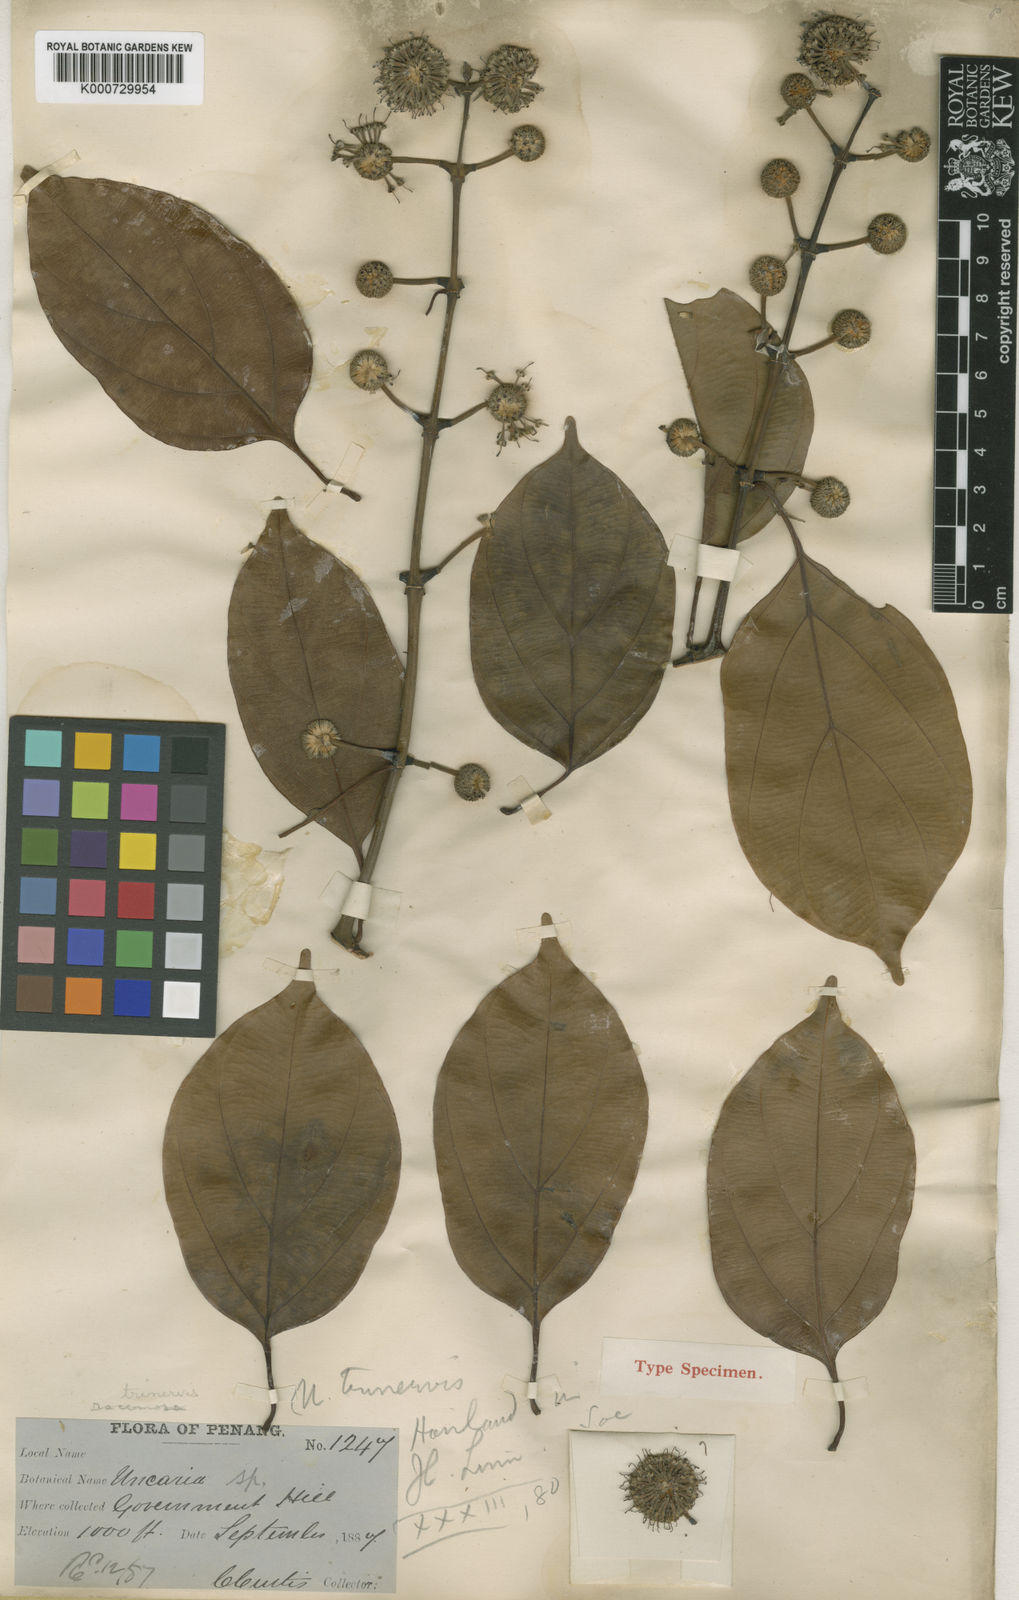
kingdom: Plantae
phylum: Tracheophyta
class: Magnoliopsida
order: Gentianales
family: Rubiaceae
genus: Uncaria
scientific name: Uncaria longiflora
